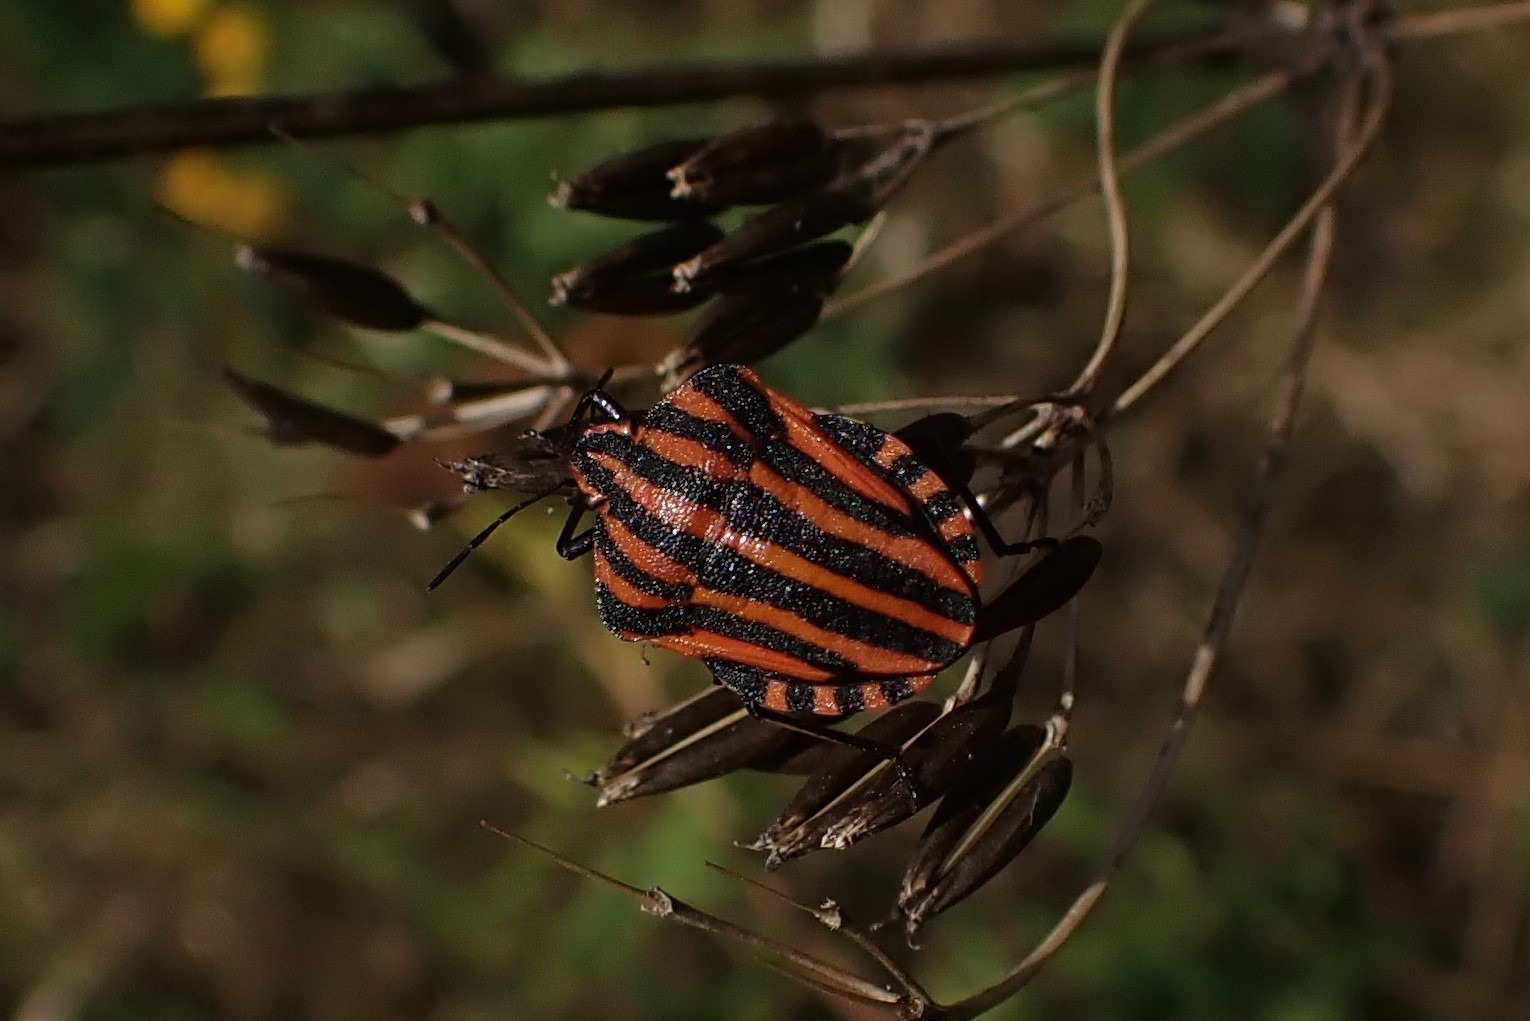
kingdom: Animalia
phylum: Arthropoda
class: Insecta
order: Hemiptera
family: Pentatomidae
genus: Graphosoma
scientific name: Graphosoma italicum
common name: Stribetæge
